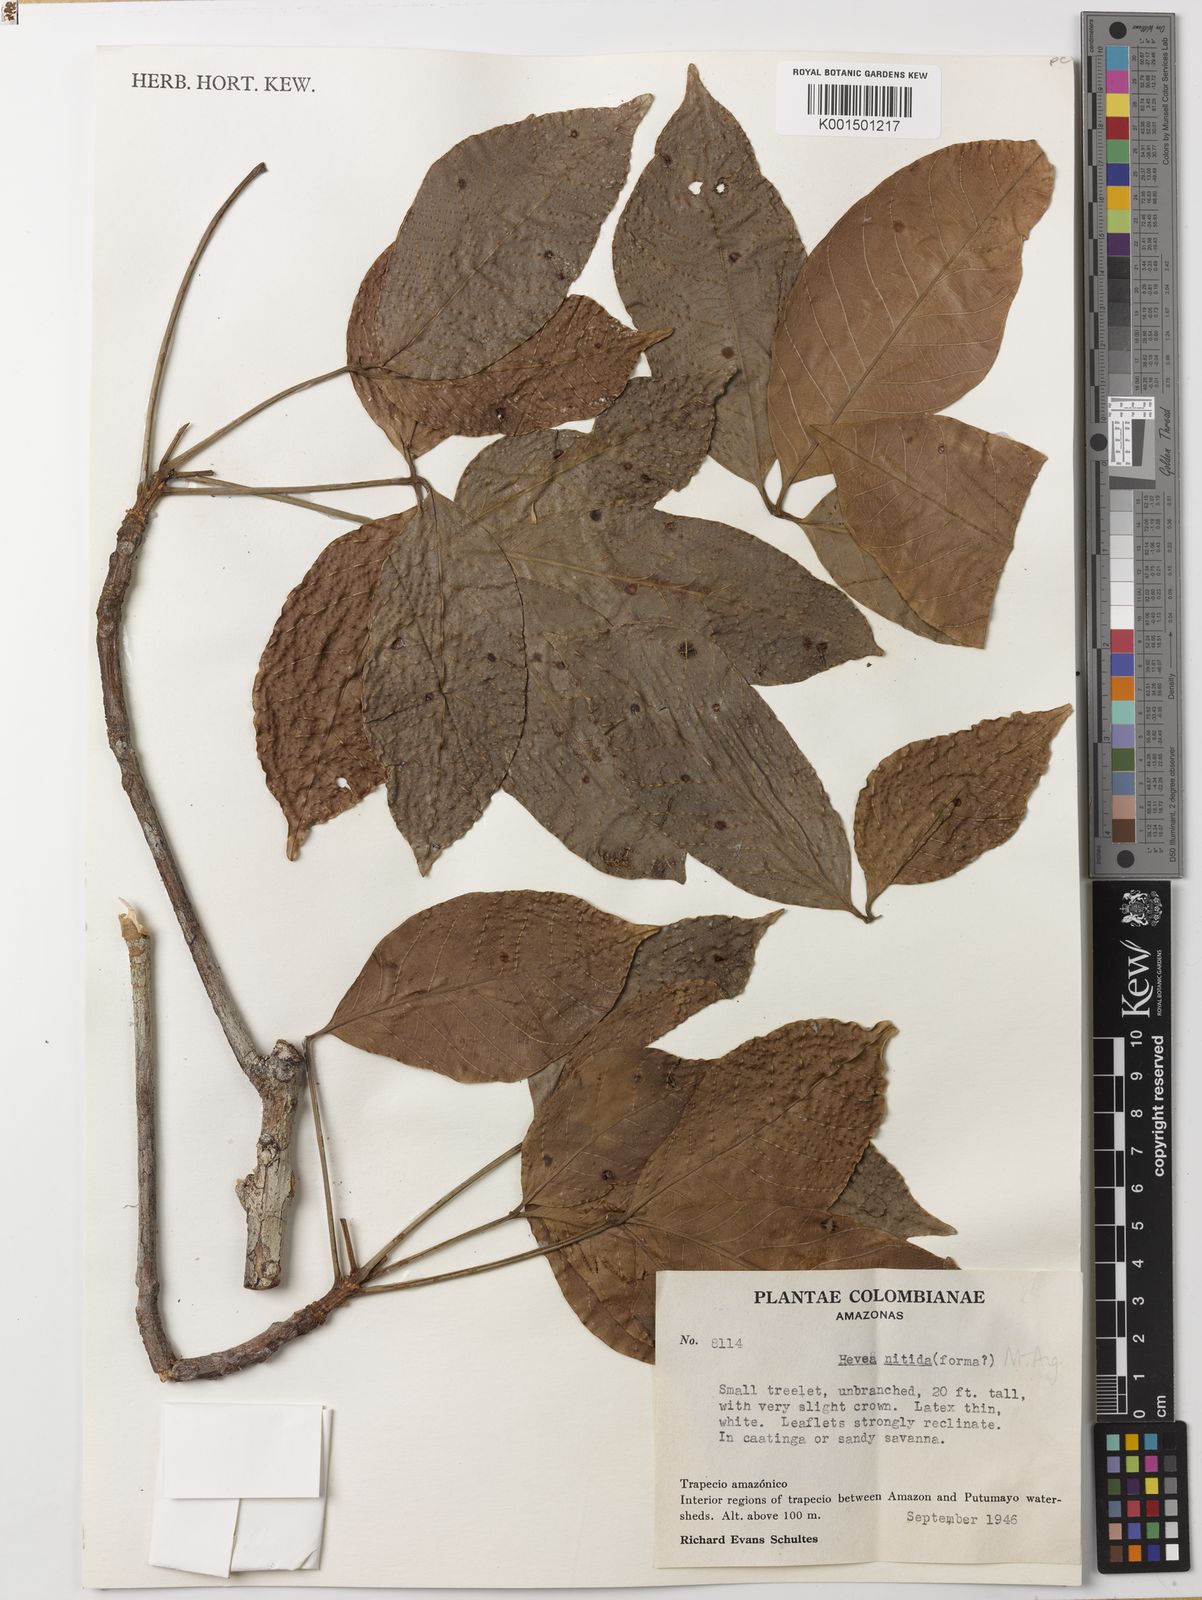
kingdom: Plantae
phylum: Tracheophyta
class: Magnoliopsida
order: Malpighiales
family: Euphorbiaceae
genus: Hevea
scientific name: Hevea nitida
